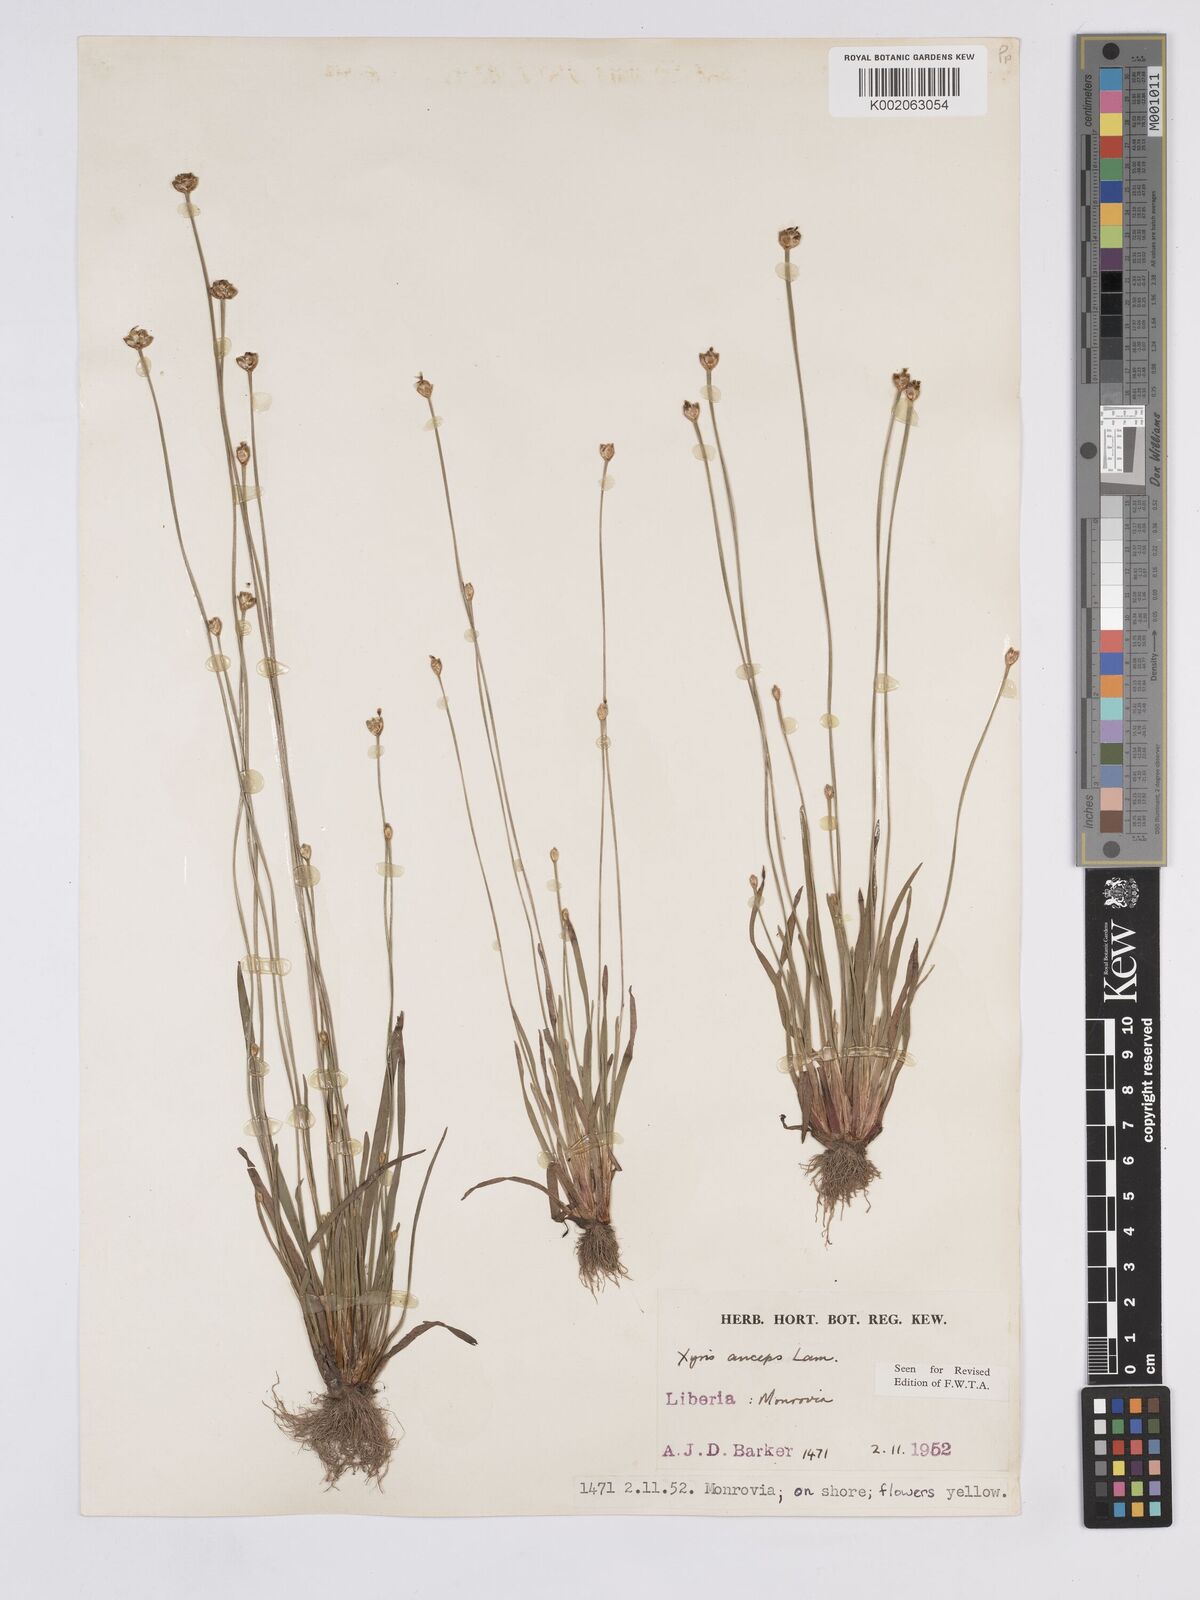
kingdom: Plantae
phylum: Tracheophyta
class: Liliopsida
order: Poales
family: Xyridaceae
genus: Xyris
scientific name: Xyris anceps
